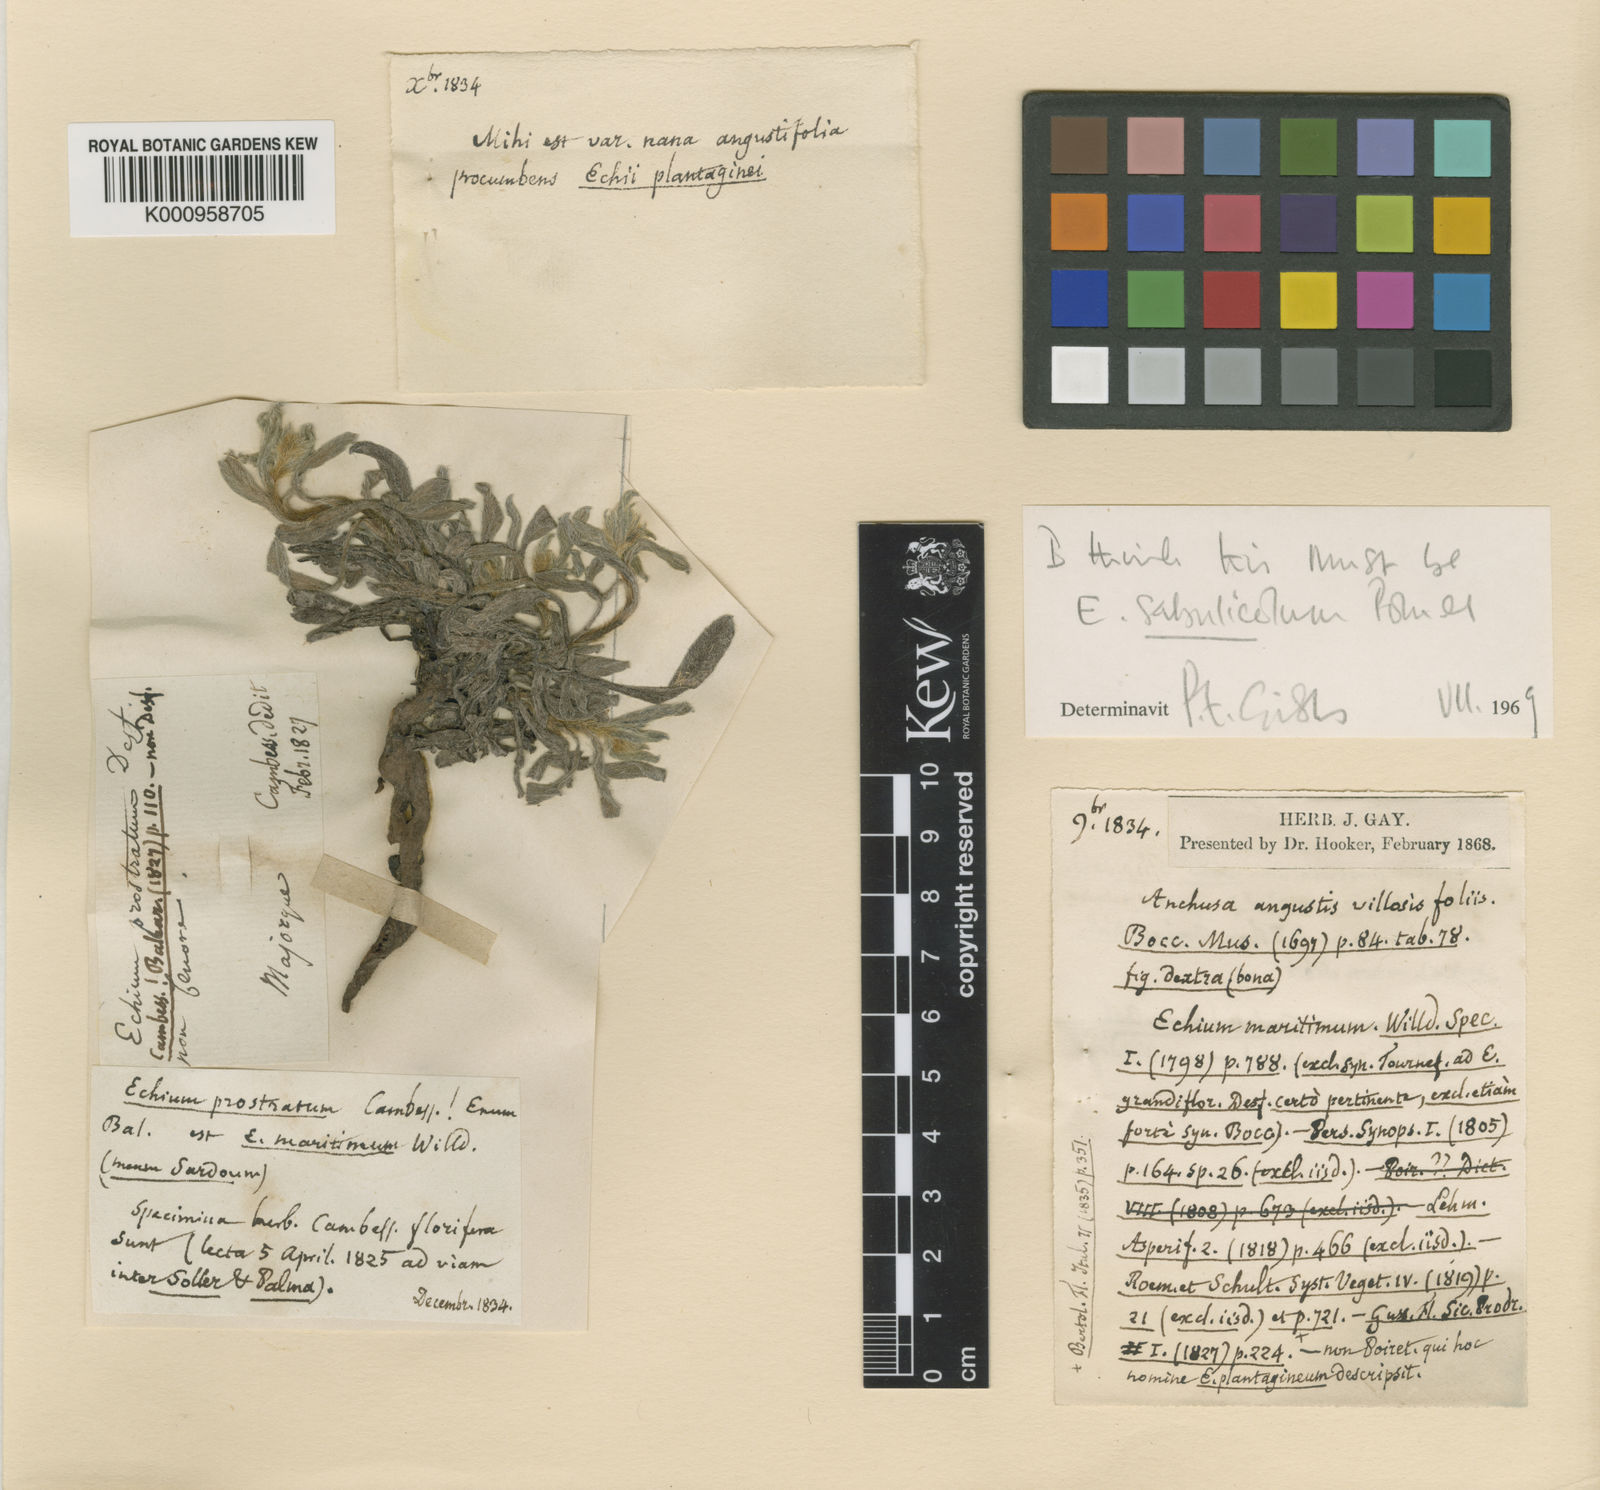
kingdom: Plantae
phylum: Tracheophyta
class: Magnoliopsida
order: Boraginales
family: Boraginaceae
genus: Echium
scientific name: Echium sabulicola
